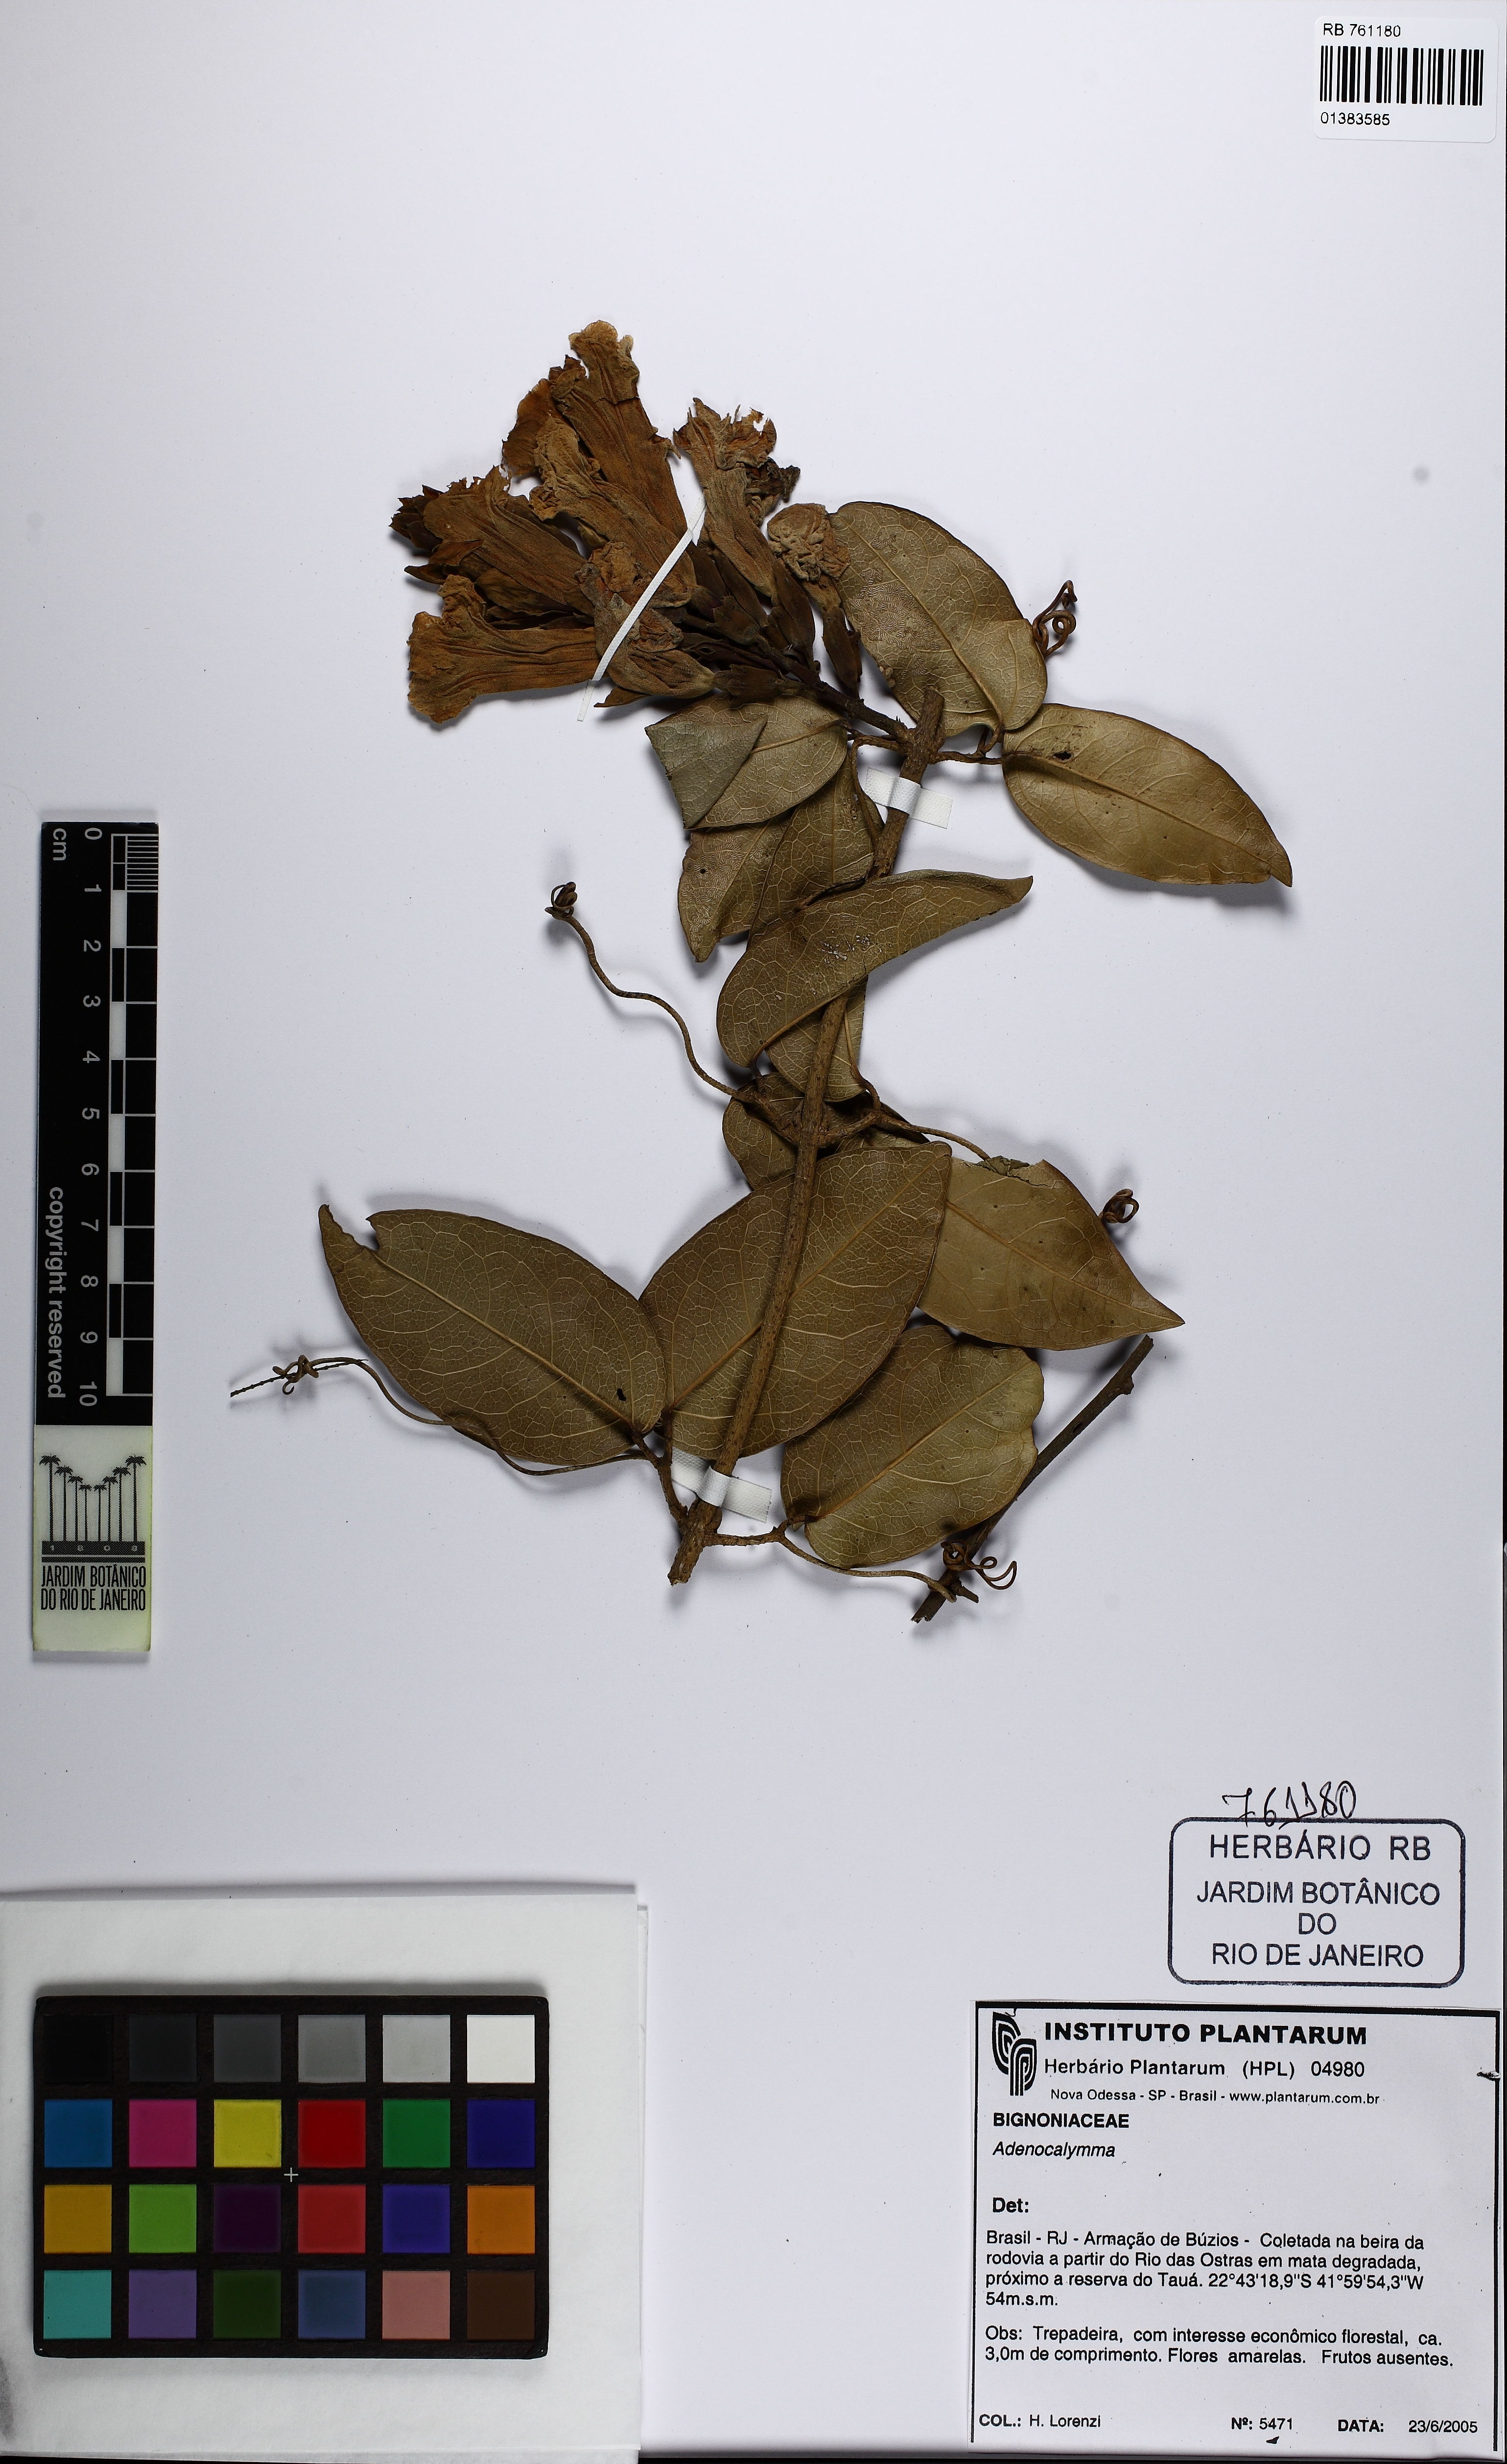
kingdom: Plantae
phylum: Tracheophyta
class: Magnoliopsida
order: Lamiales
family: Bignoniaceae
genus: Adenocalymma
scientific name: Adenocalymma acutissimum
